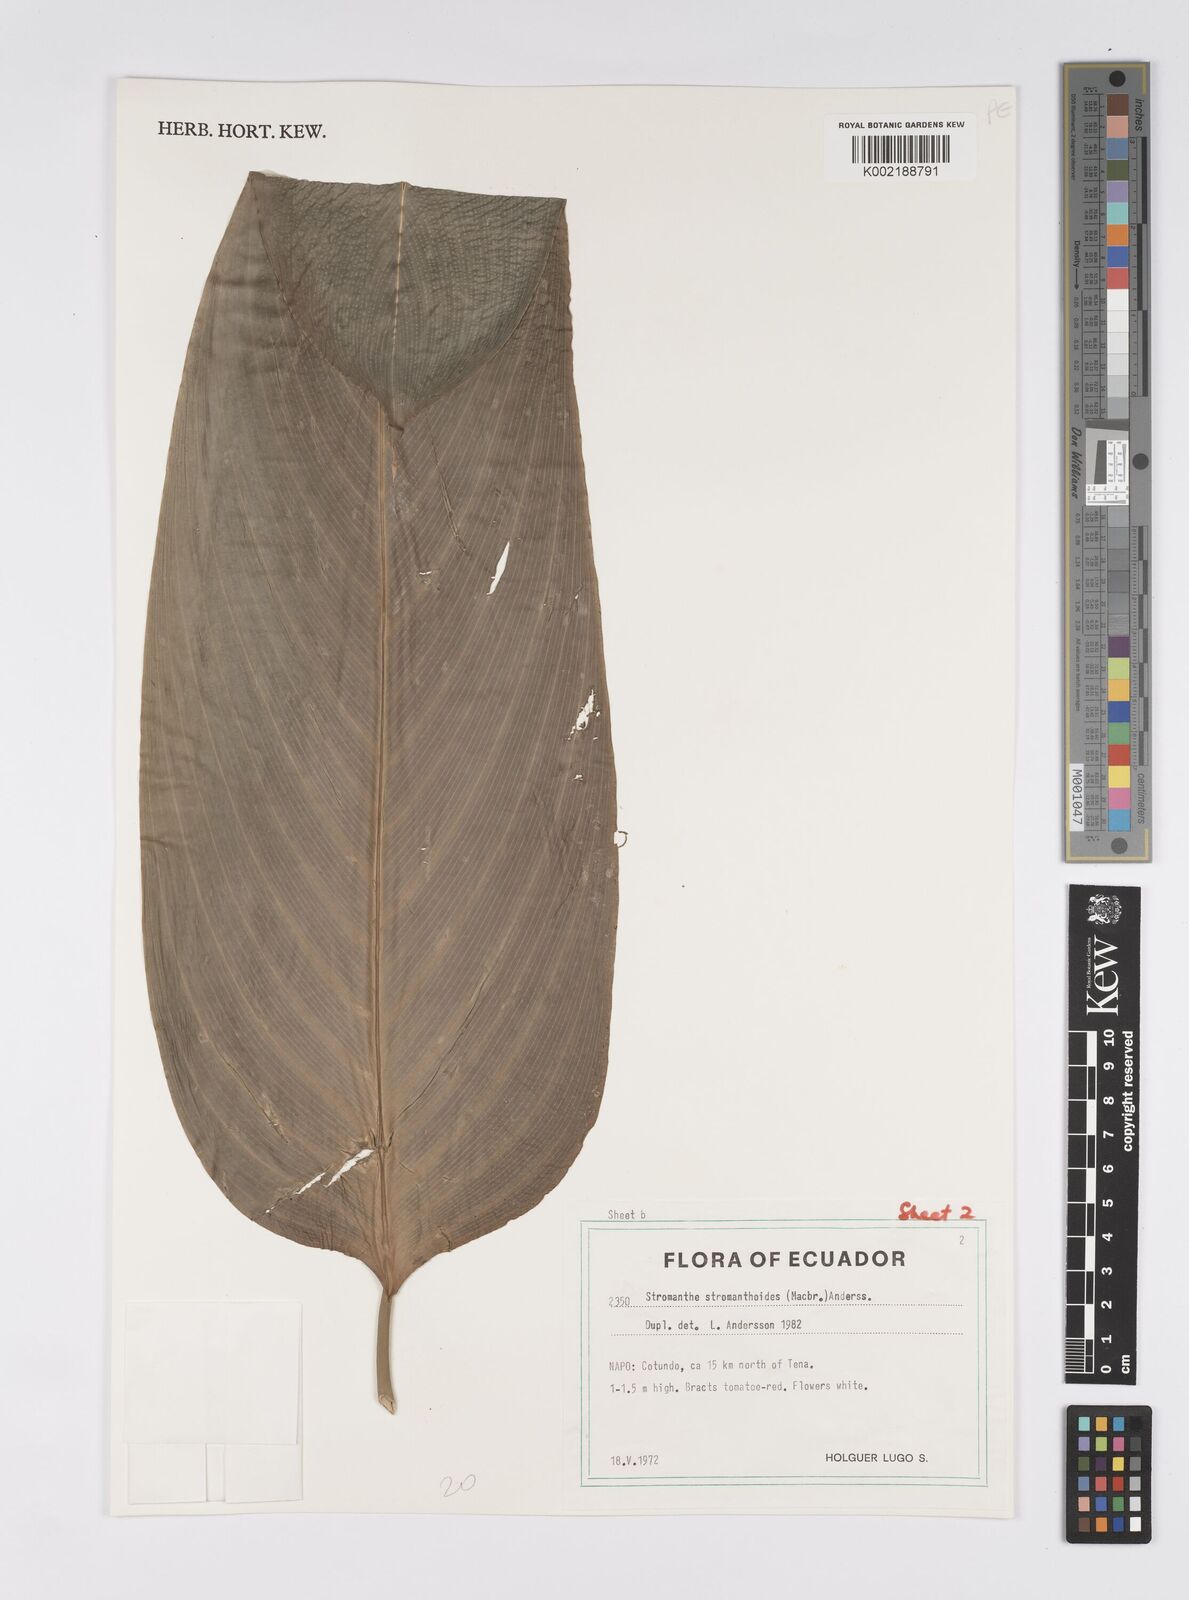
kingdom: Plantae
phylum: Tracheophyta
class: Liliopsida
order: Zingiberales
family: Marantaceae
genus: Stromanthe
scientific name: Stromanthe stromanthoides
